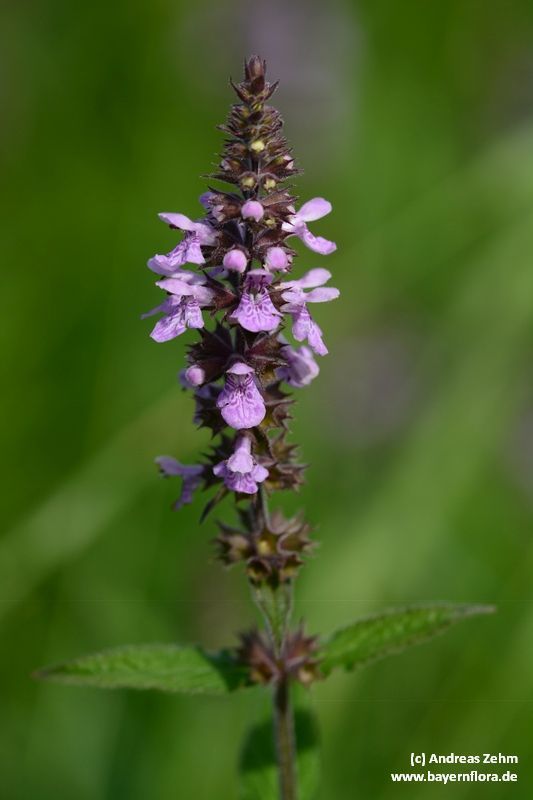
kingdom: Plantae
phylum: Tracheophyta
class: Magnoliopsida
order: Lamiales
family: Lamiaceae
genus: Stachys
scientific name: Stachys palustris
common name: Marsh woundwort
